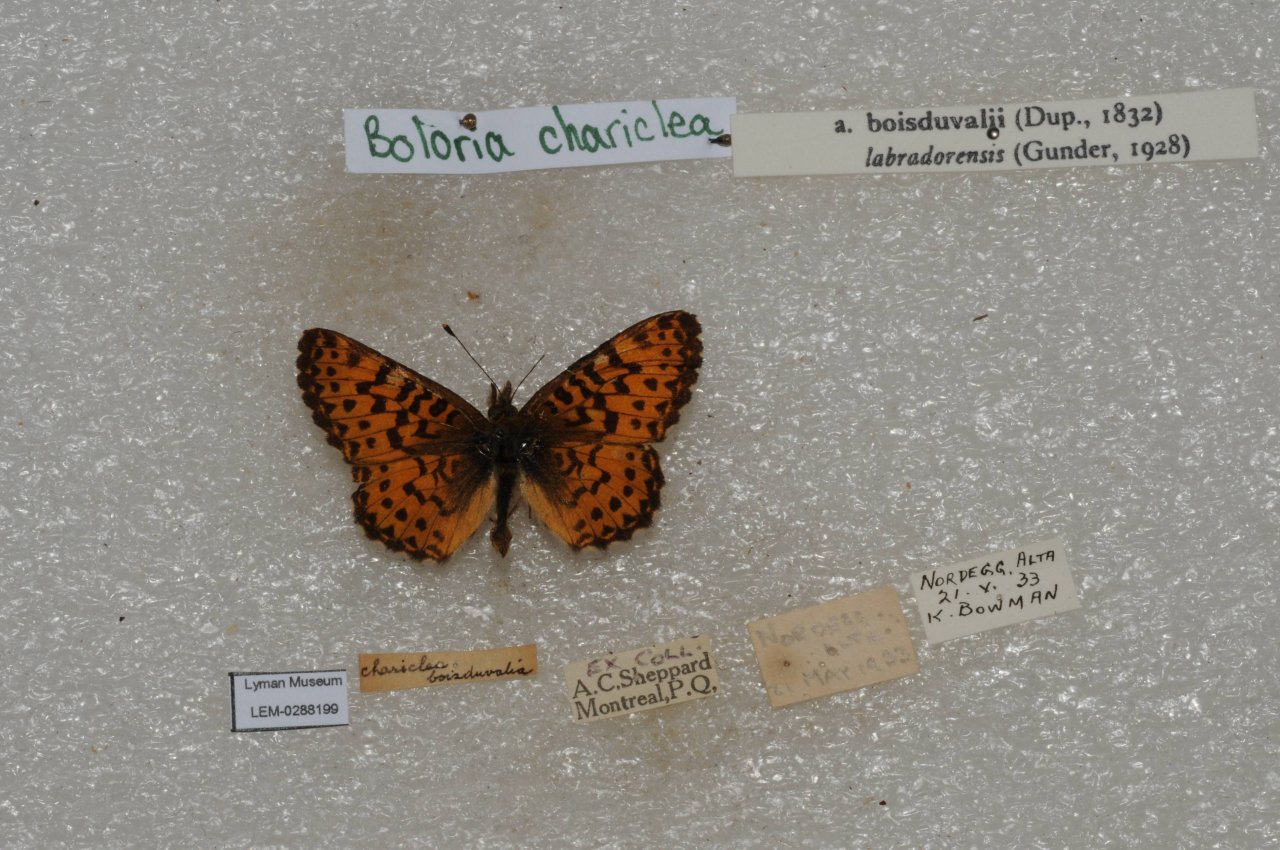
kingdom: Animalia
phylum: Arthropoda
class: Insecta
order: Lepidoptera
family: Nymphalidae
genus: Boloria
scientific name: Boloria chariclea
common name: Arctic Fritillary
